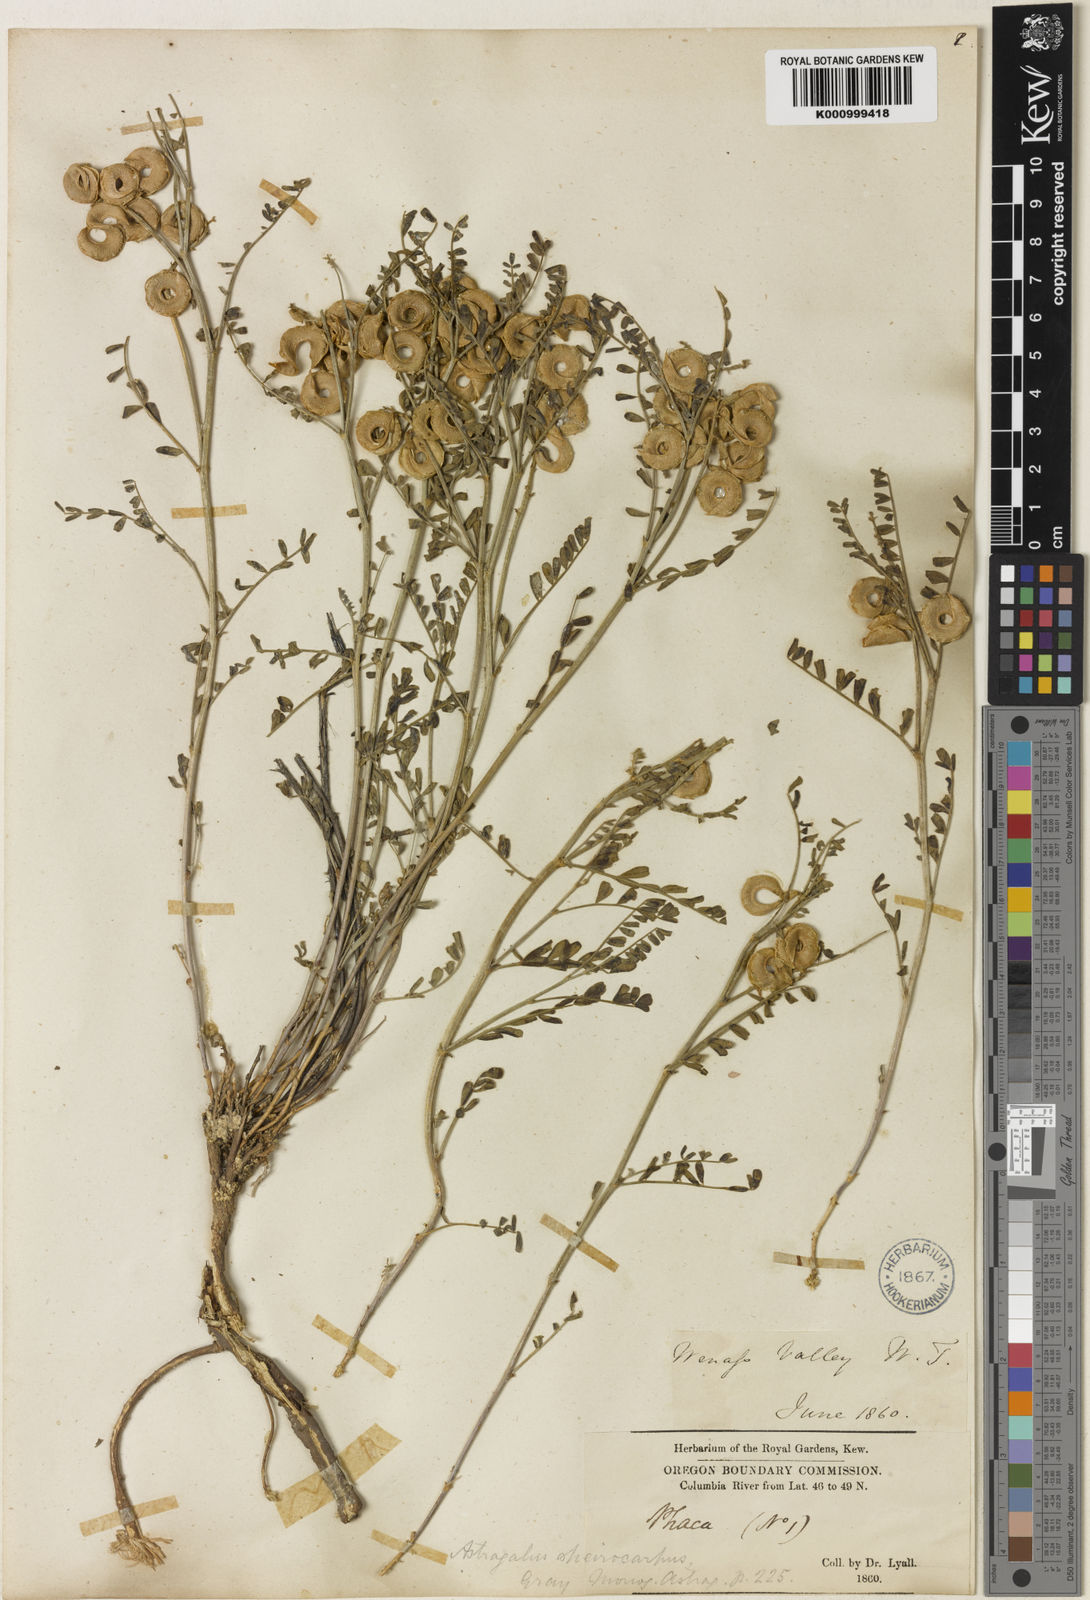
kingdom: Plantae
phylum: Tracheophyta
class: Magnoliopsida
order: Fabales
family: Fabaceae
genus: Astragalus
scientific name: Astragalus speirocarpus
